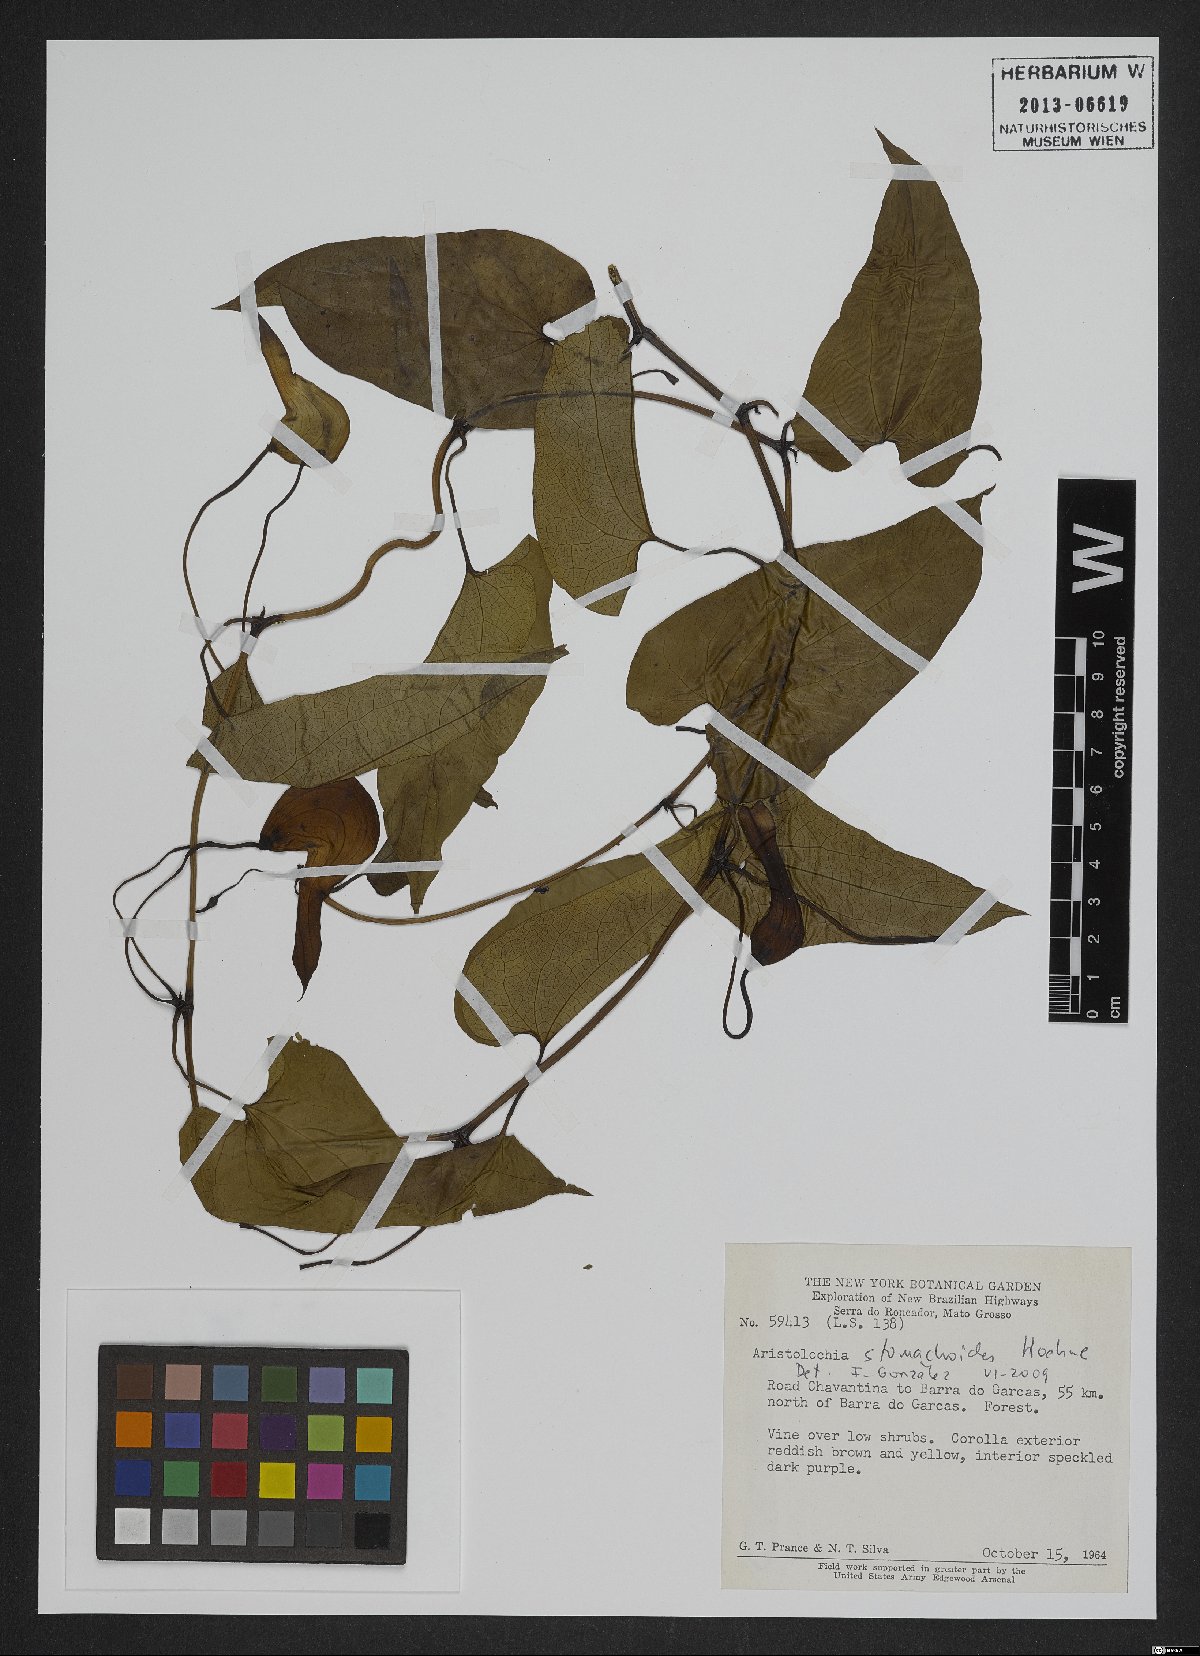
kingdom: Plantae
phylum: Tracheophyta
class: Magnoliopsida
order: Piperales
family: Aristolochiaceae
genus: Aristolochia
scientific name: Aristolochia stomachoidis
